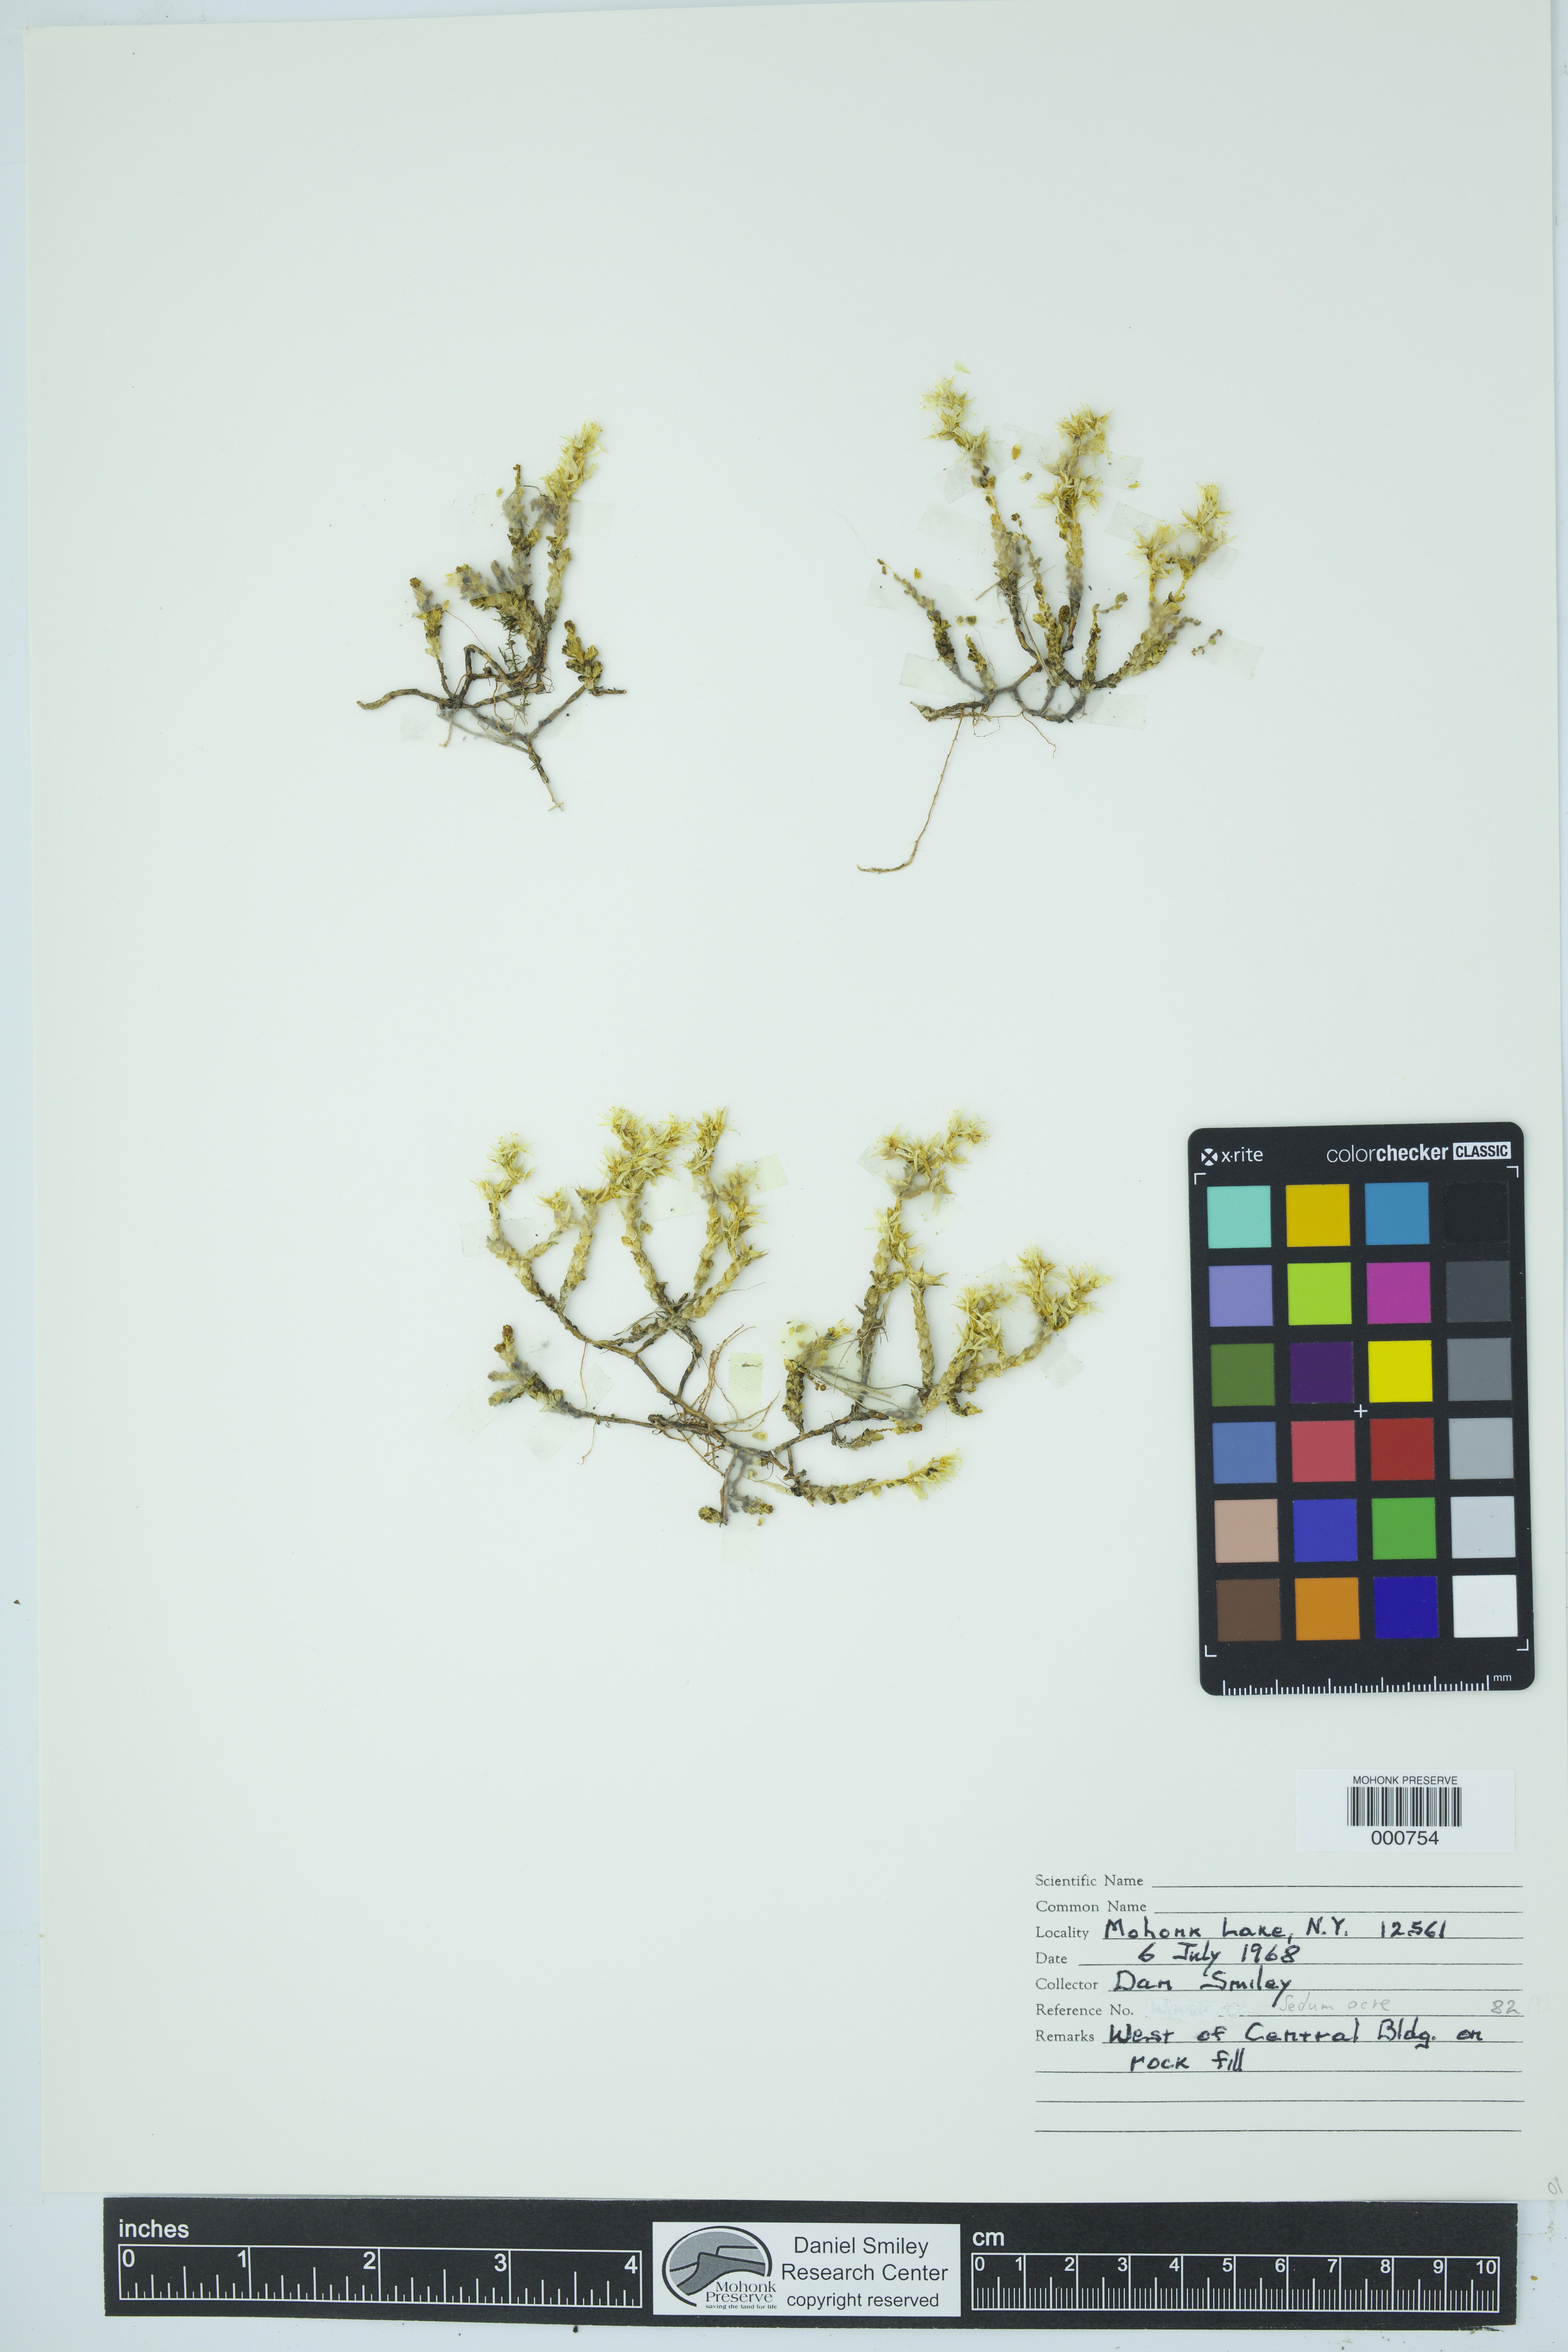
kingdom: Plantae
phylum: Tracheophyta
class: Magnoliopsida
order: Saxifragales
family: Crassulaceae
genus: Sedum
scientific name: Sedum acre
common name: Biting stonecrop
